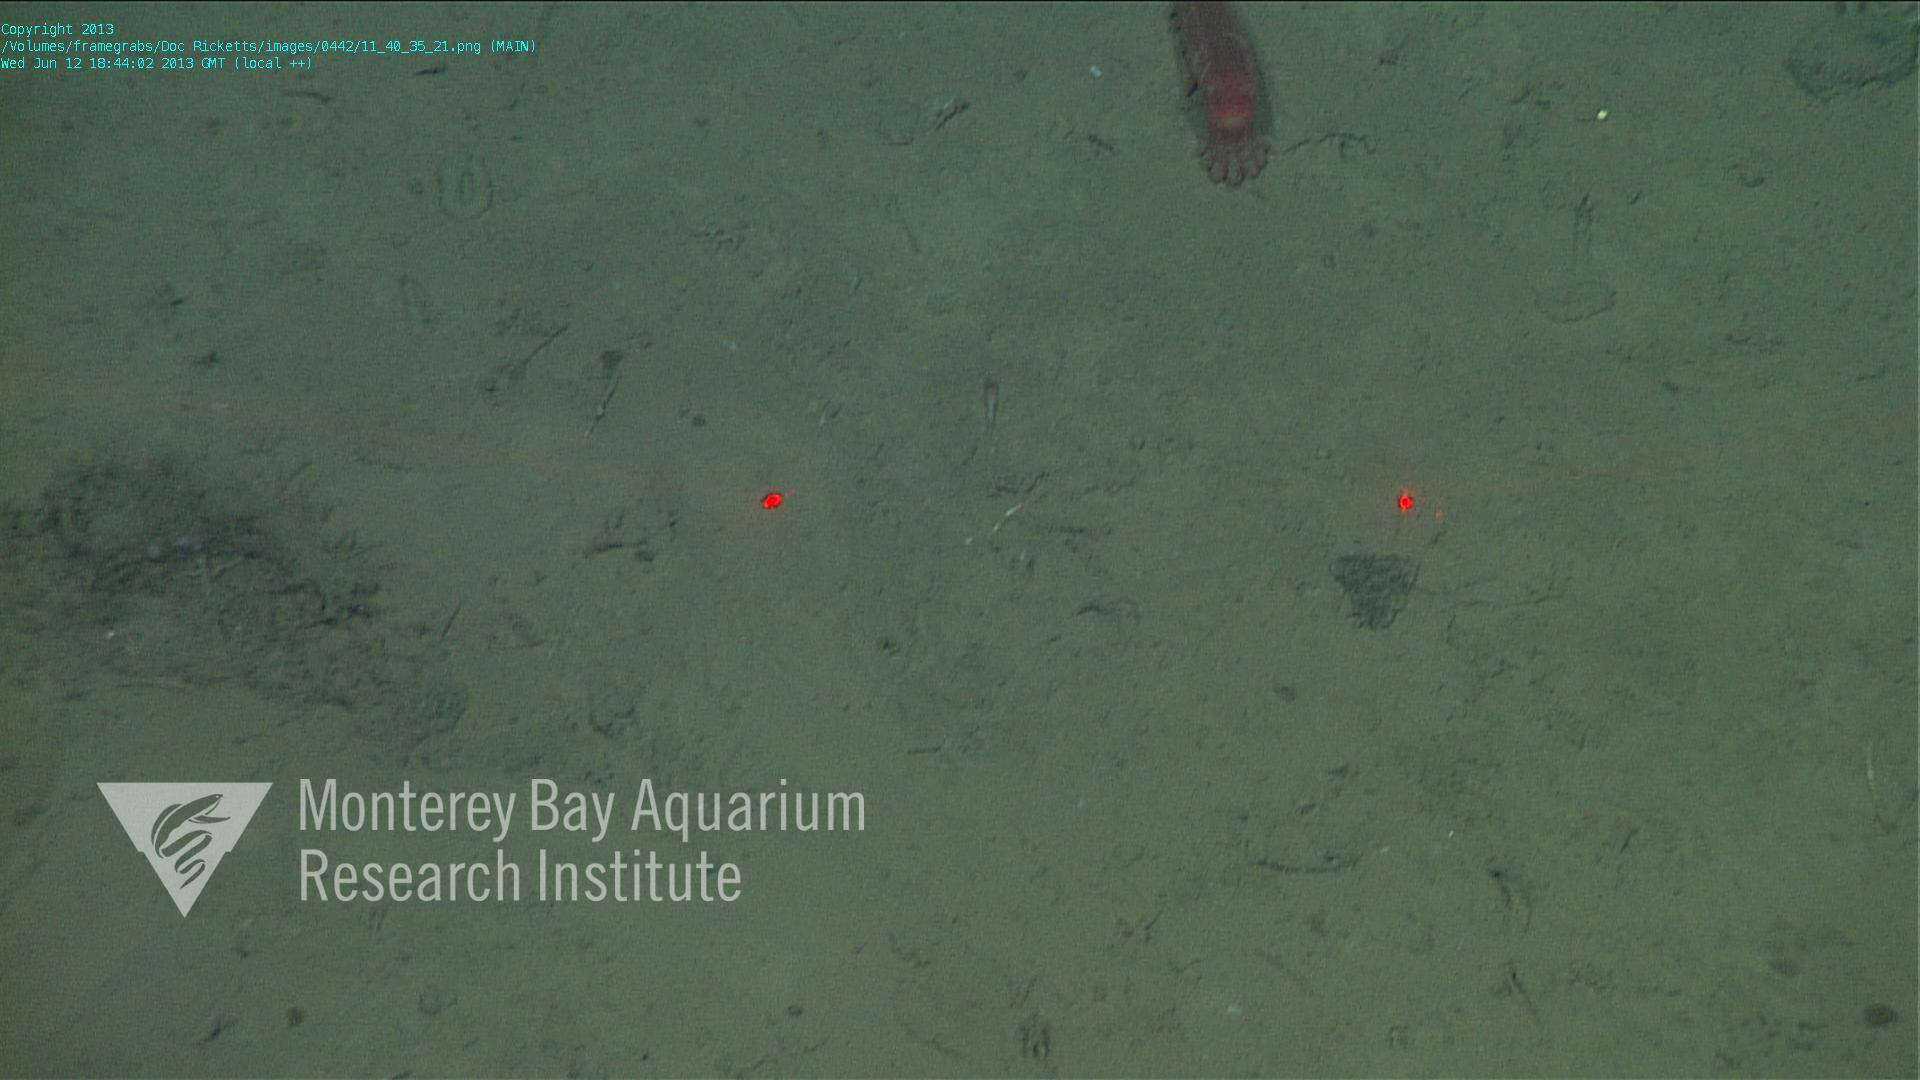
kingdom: Animalia
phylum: Porifera
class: Demospongiae
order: Poecilosclerida
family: Cladorhizidae
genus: Cladorhiza
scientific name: Cladorhiza
